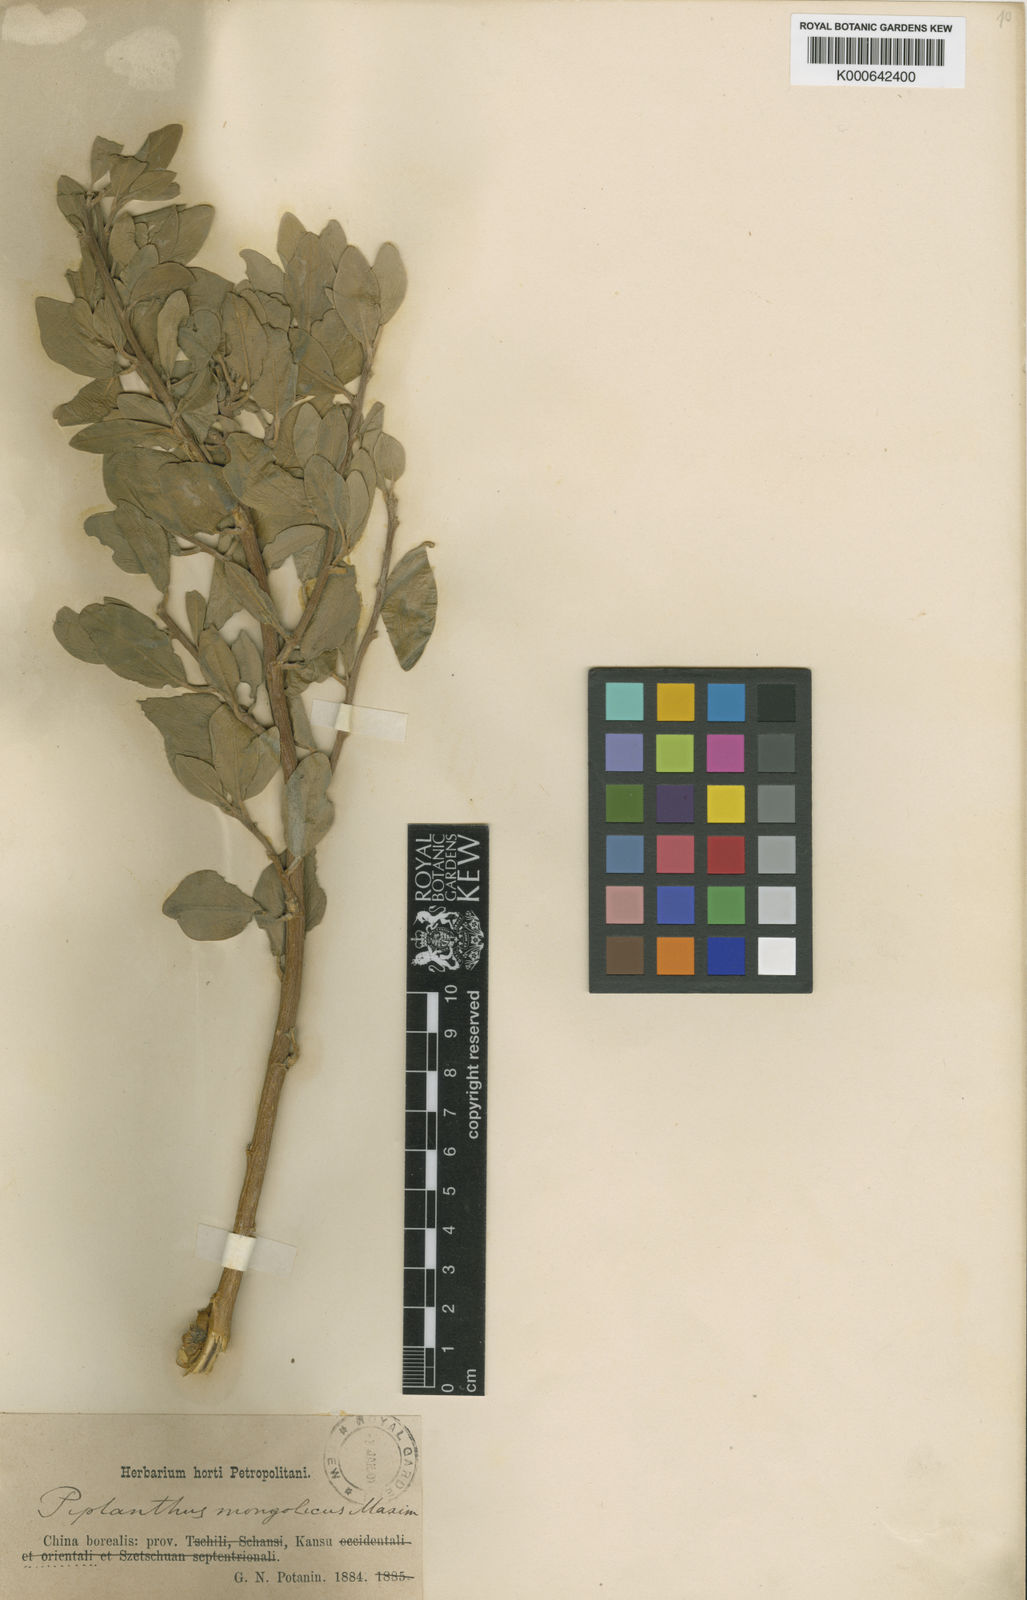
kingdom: Plantae
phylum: Tracheophyta
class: Magnoliopsida
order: Fabales
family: Fabaceae
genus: Ammopiptanthus
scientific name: Ammopiptanthus nanus
